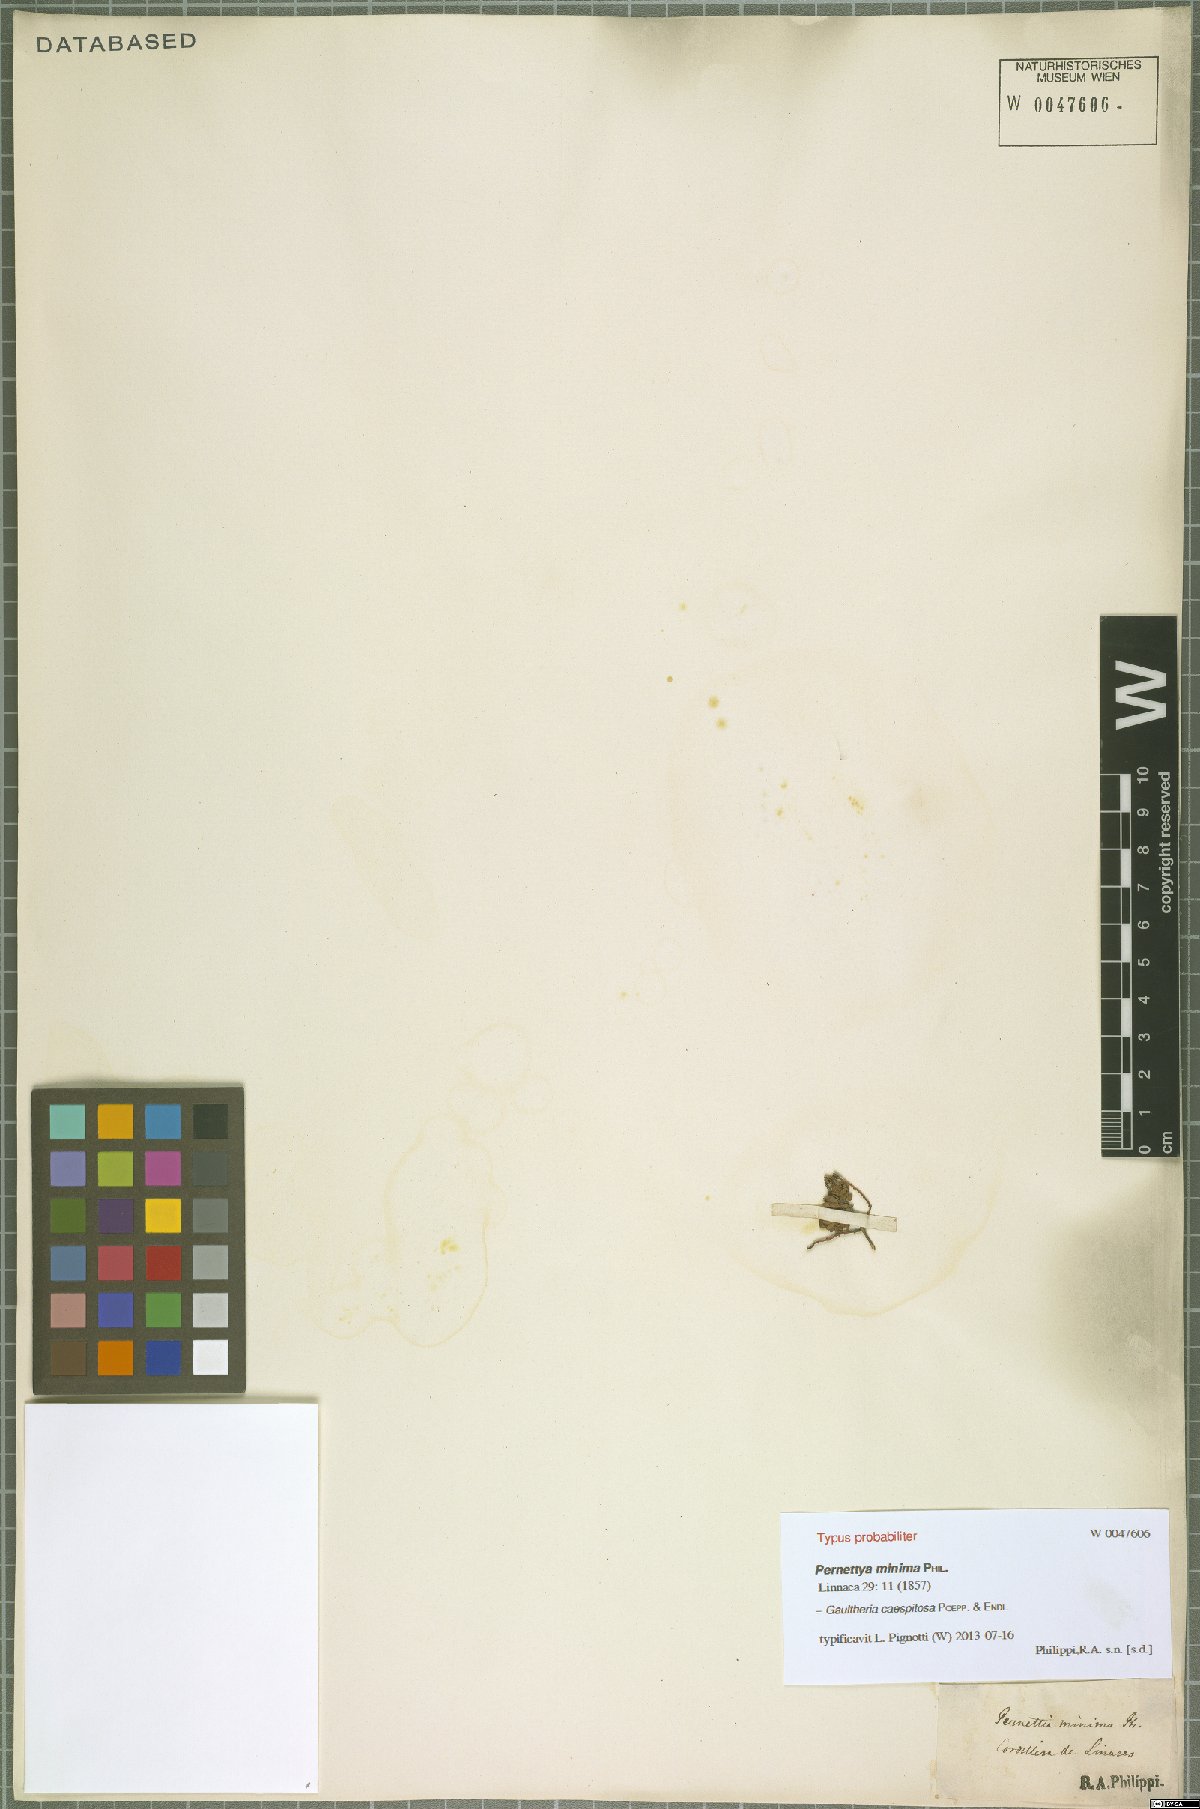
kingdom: Plantae
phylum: Tracheophyta
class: Magnoliopsida
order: Ericales
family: Ericaceae
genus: Gaultheria
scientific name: Gaultheria caespitosa
